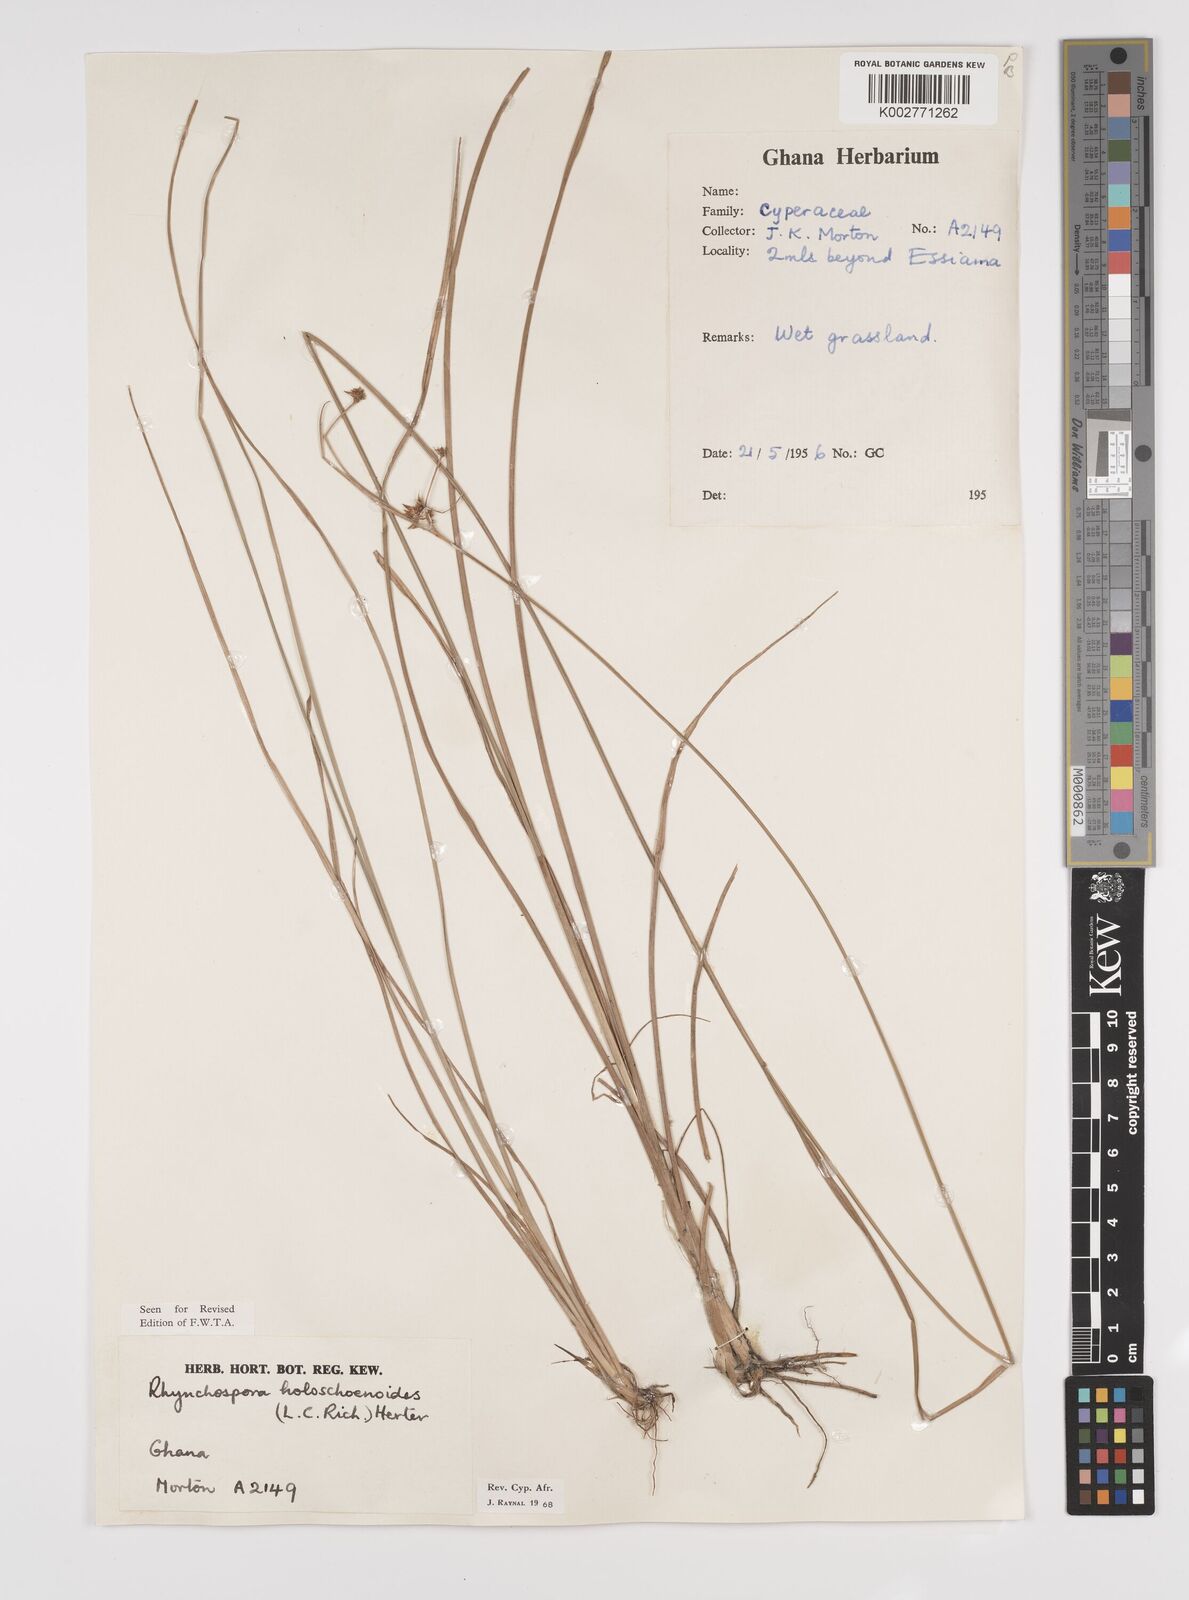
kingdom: Plantae
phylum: Tracheophyta
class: Liliopsida
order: Poales
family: Cyperaceae
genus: Rhynchospora
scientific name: Rhynchospora holoschoenoides
